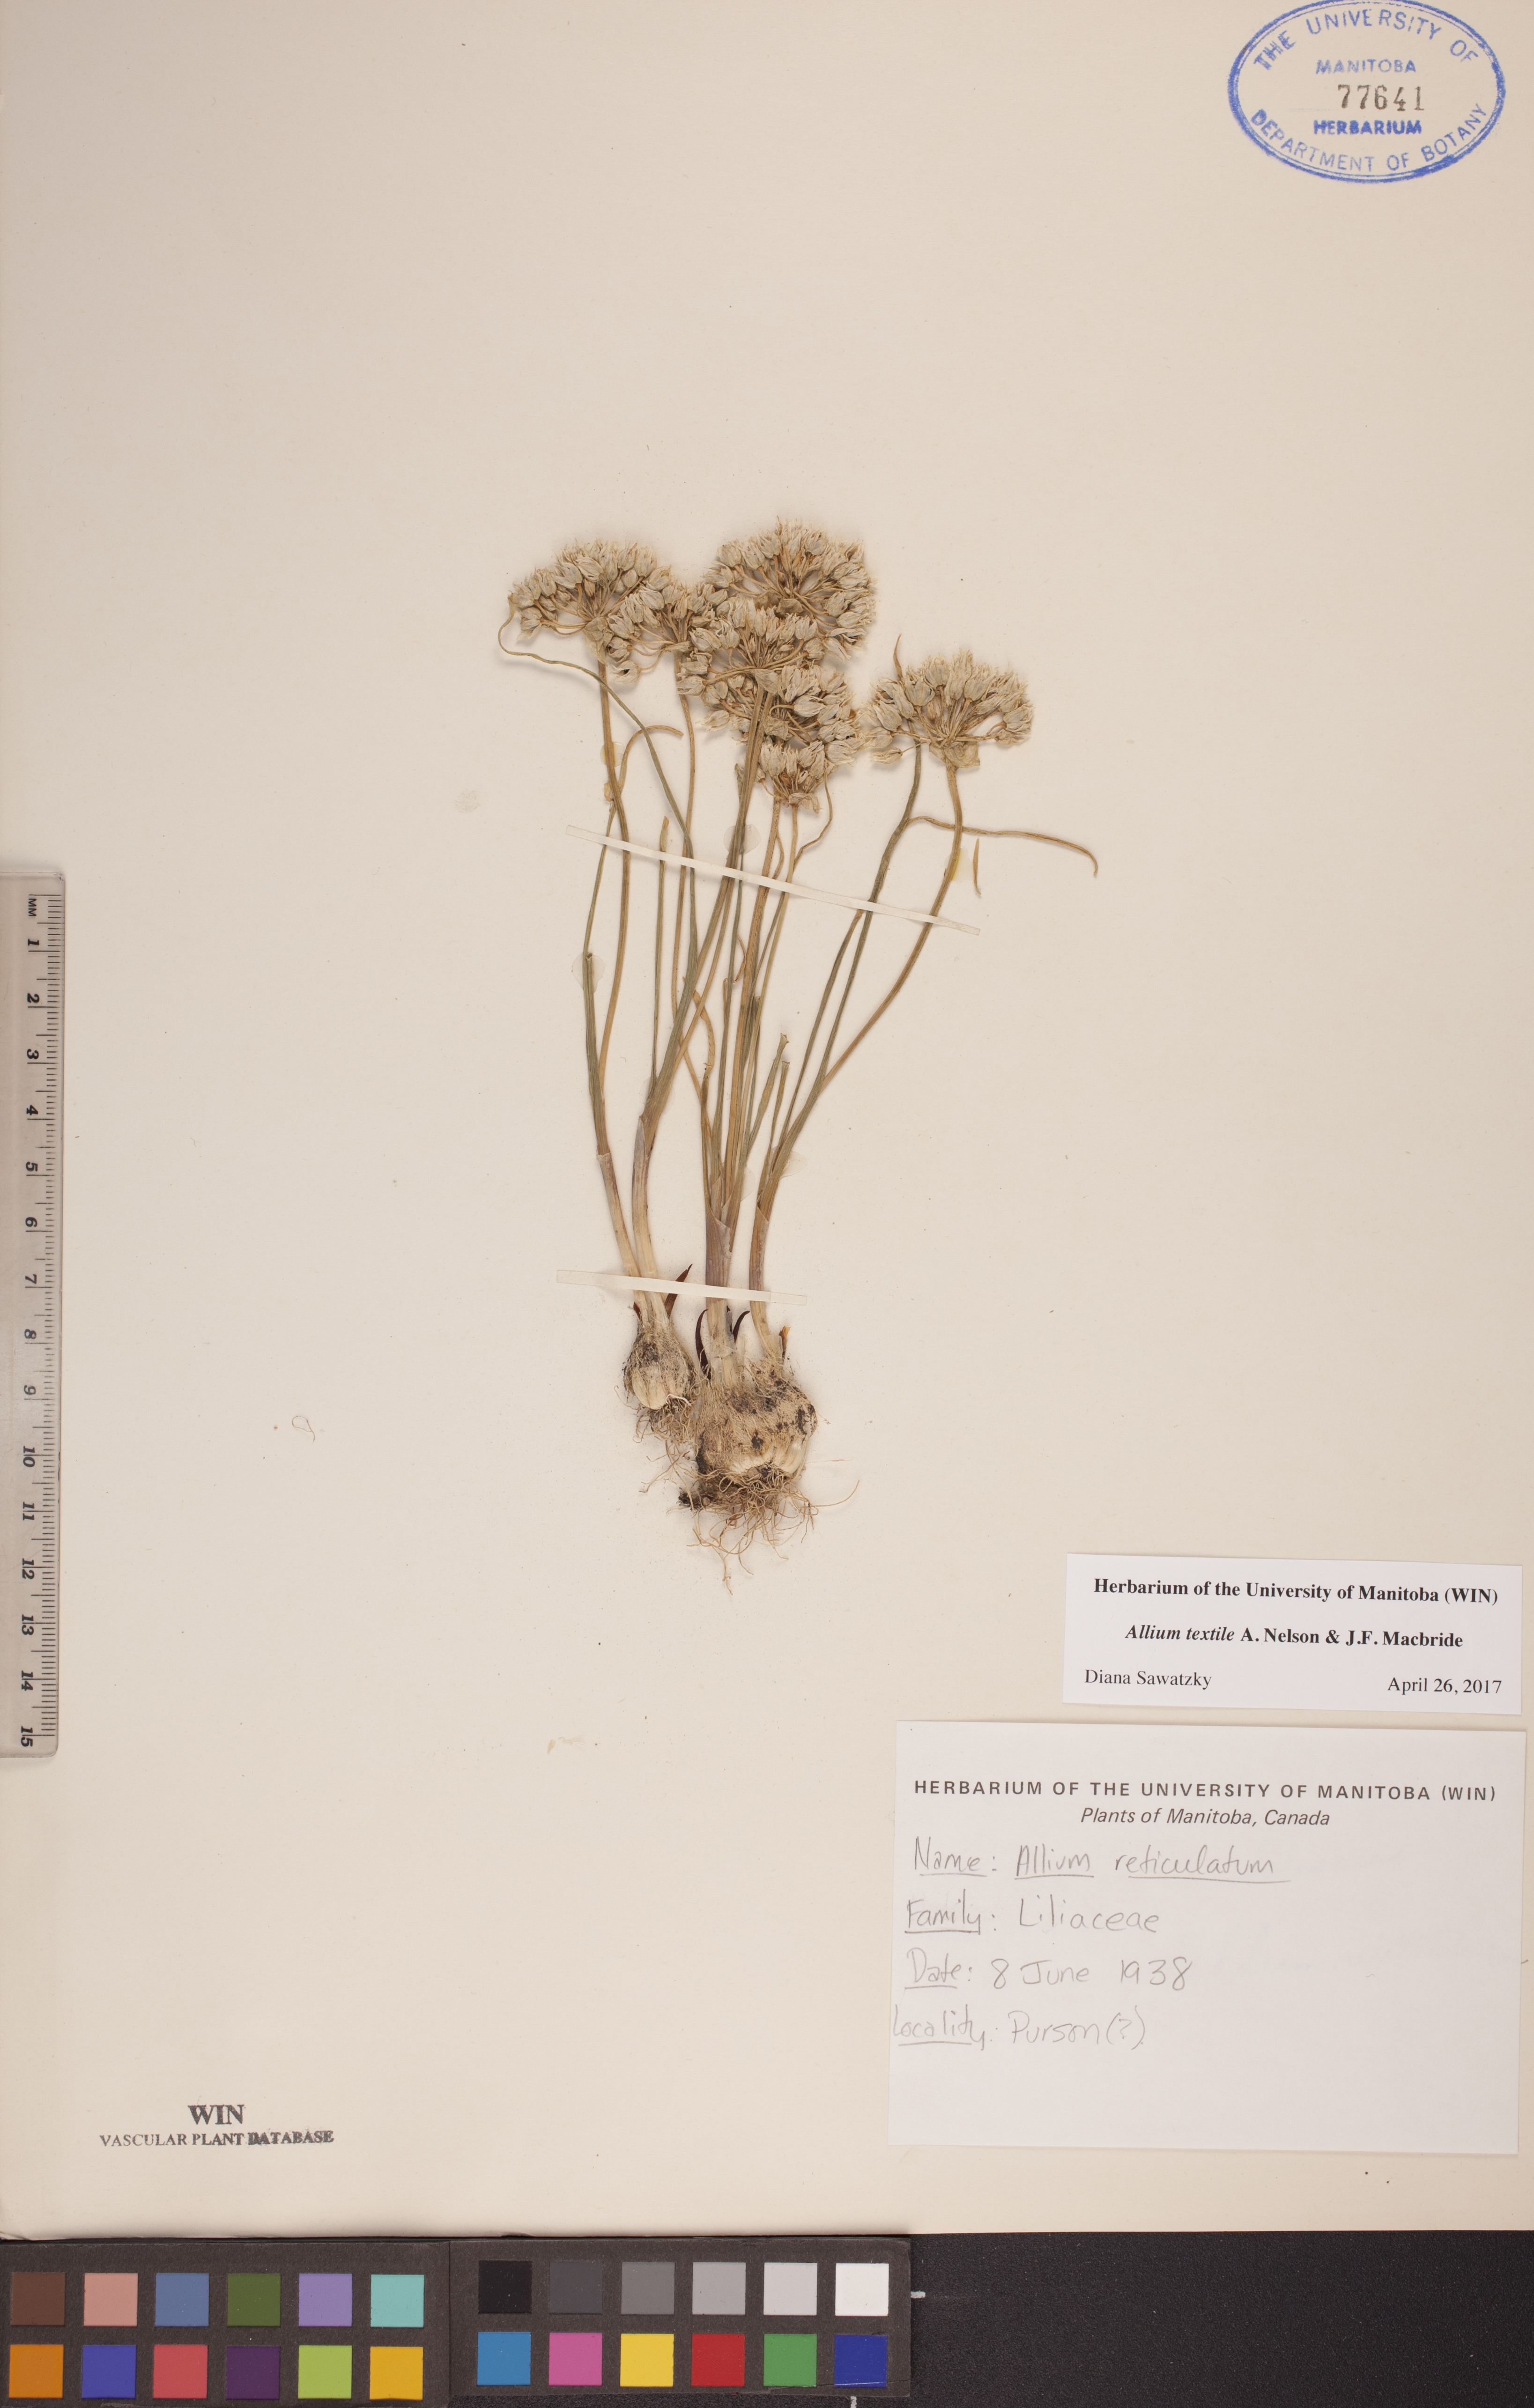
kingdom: Plantae
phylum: Tracheophyta
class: Liliopsida
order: Asparagales
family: Amaryllidaceae
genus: Allium
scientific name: Allium textile
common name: Prairie onion
